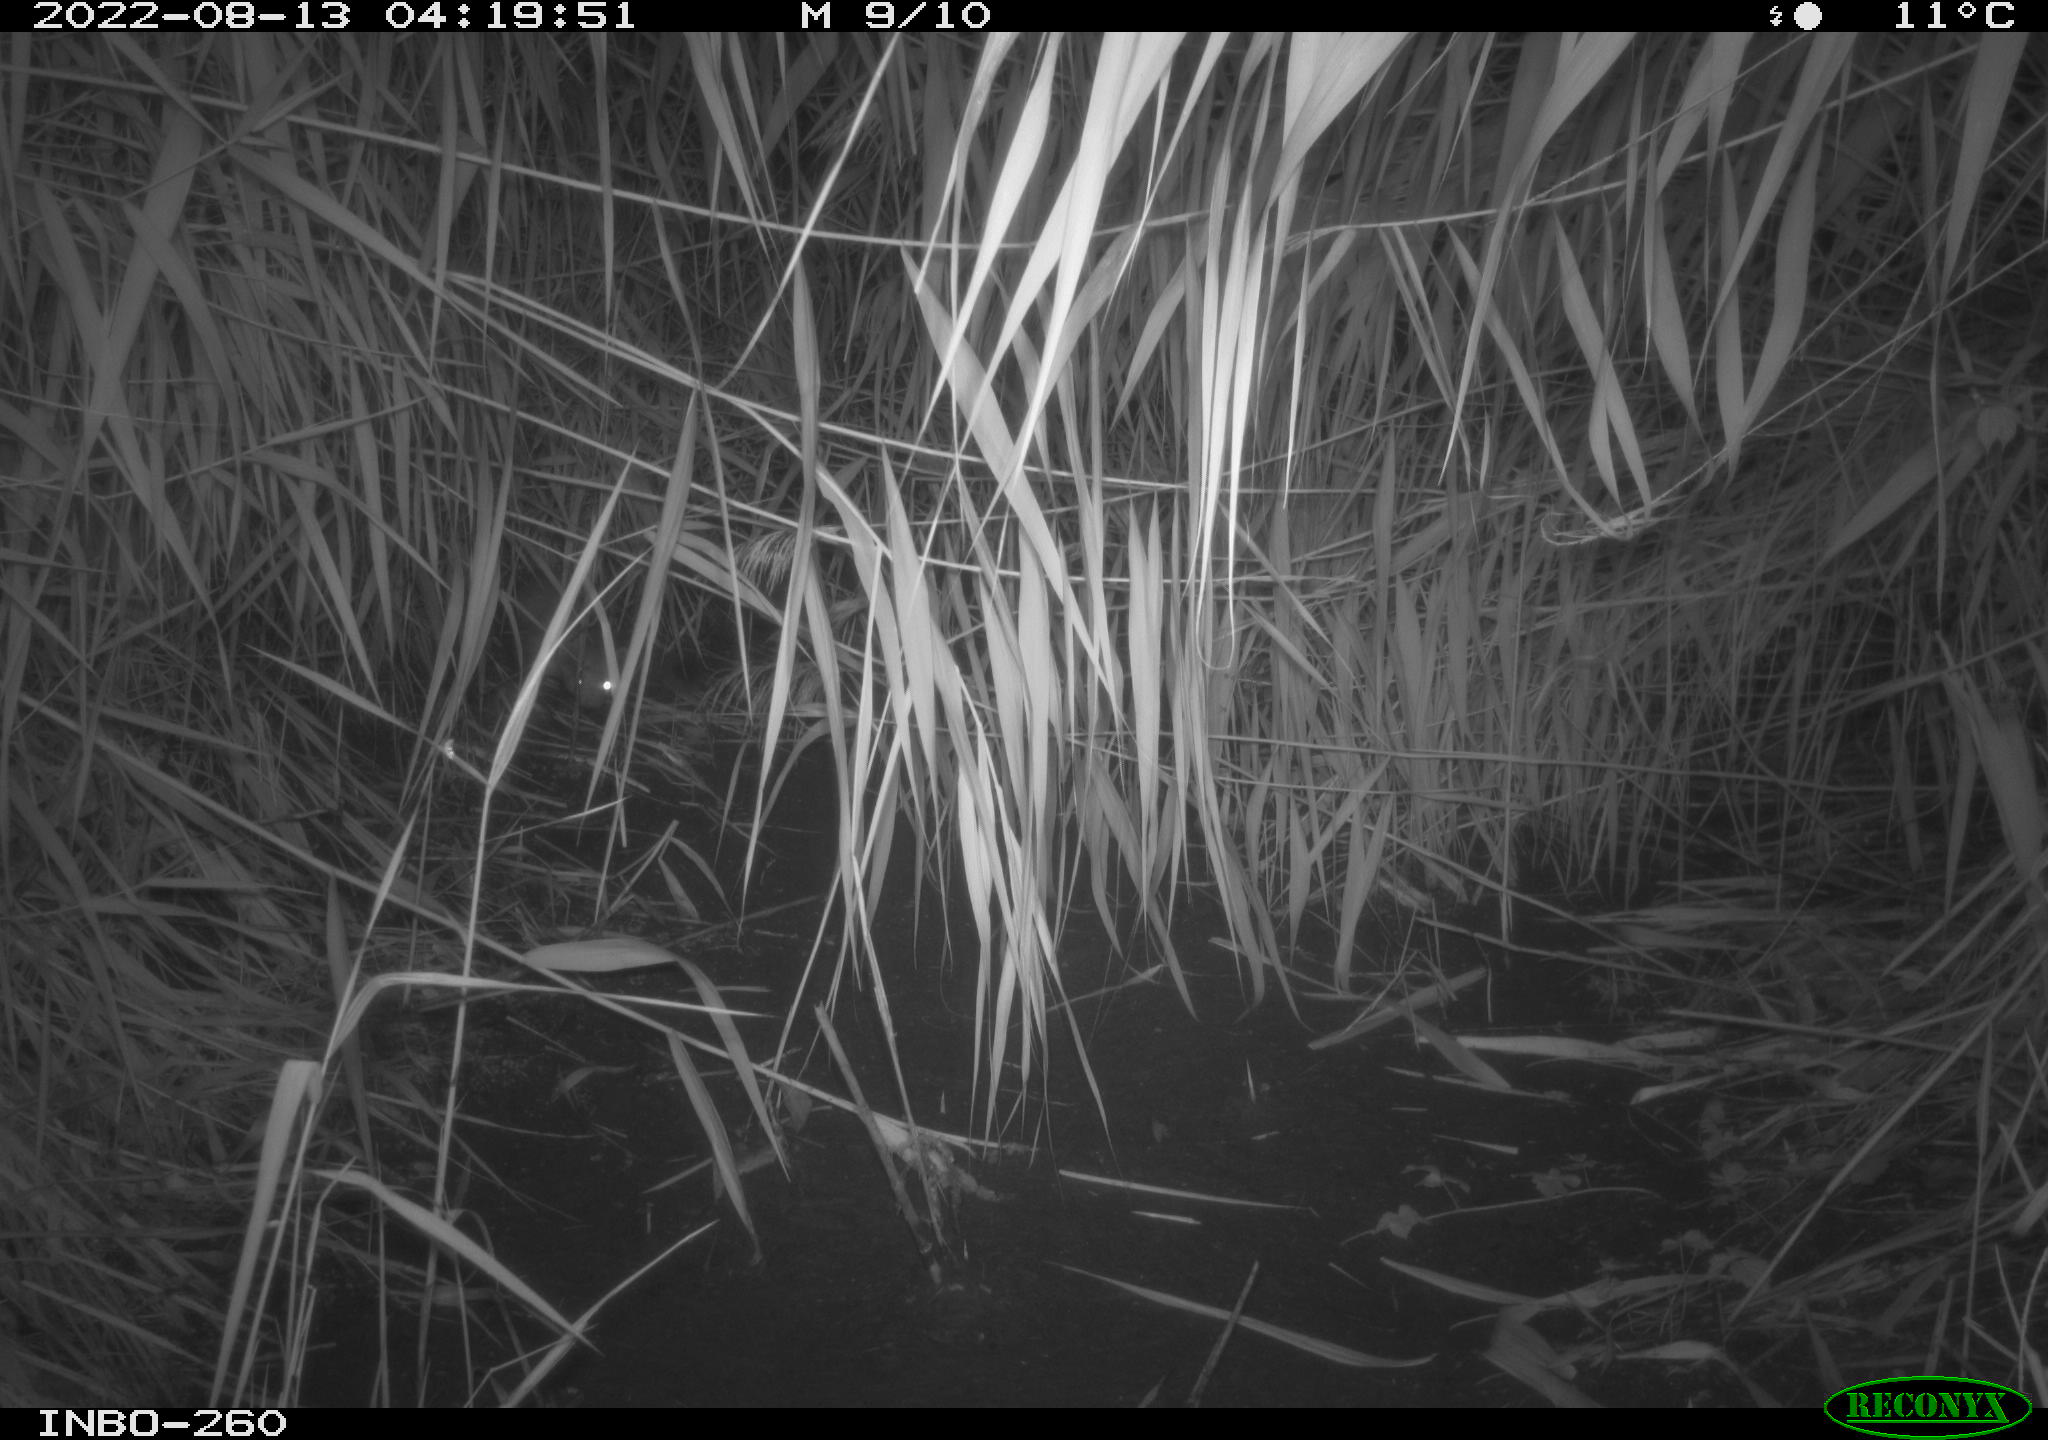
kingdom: Animalia
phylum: Chordata
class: Mammalia
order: Carnivora
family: Mustelidae
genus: Martes
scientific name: Martes
